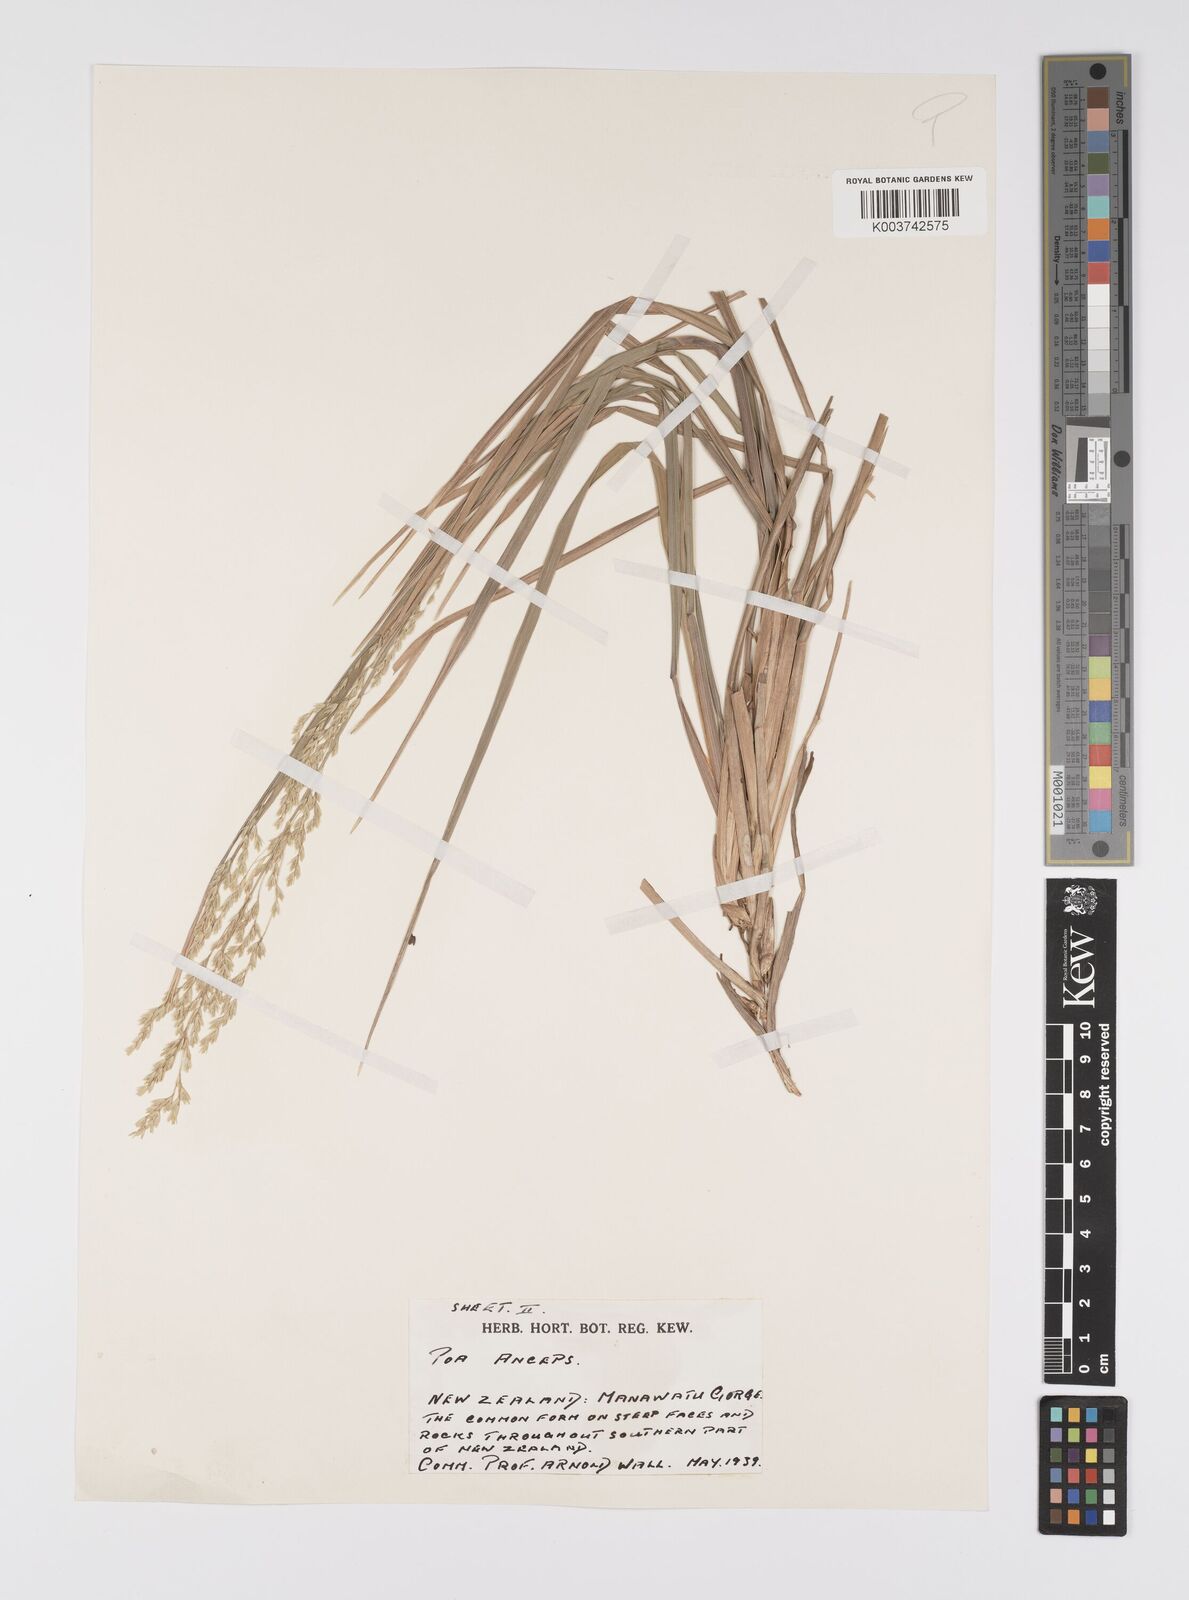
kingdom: Plantae
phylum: Tracheophyta
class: Liliopsida
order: Poales
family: Poaceae
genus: Poa
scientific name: Poa anceps
